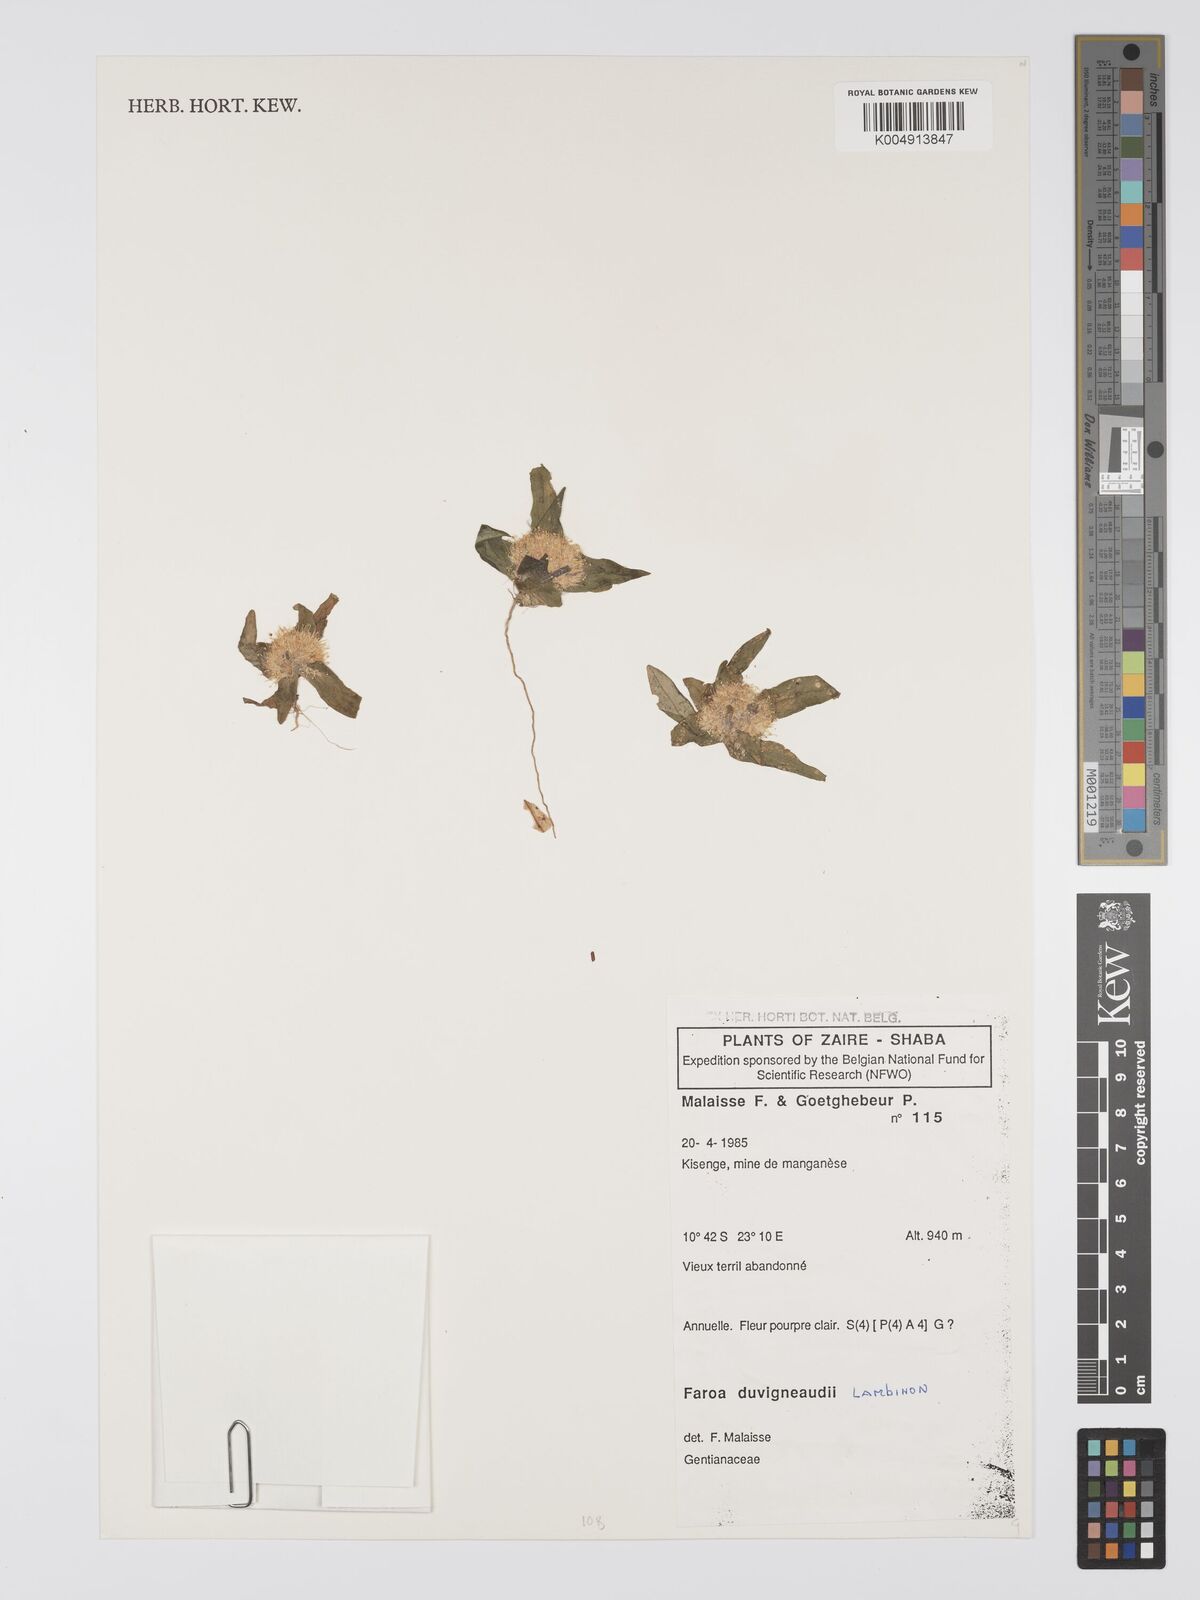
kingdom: Plantae
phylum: Tracheophyta
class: Magnoliopsida
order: Gentianales
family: Gentianaceae
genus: Faroa
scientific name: Faroa duvigneaudii
